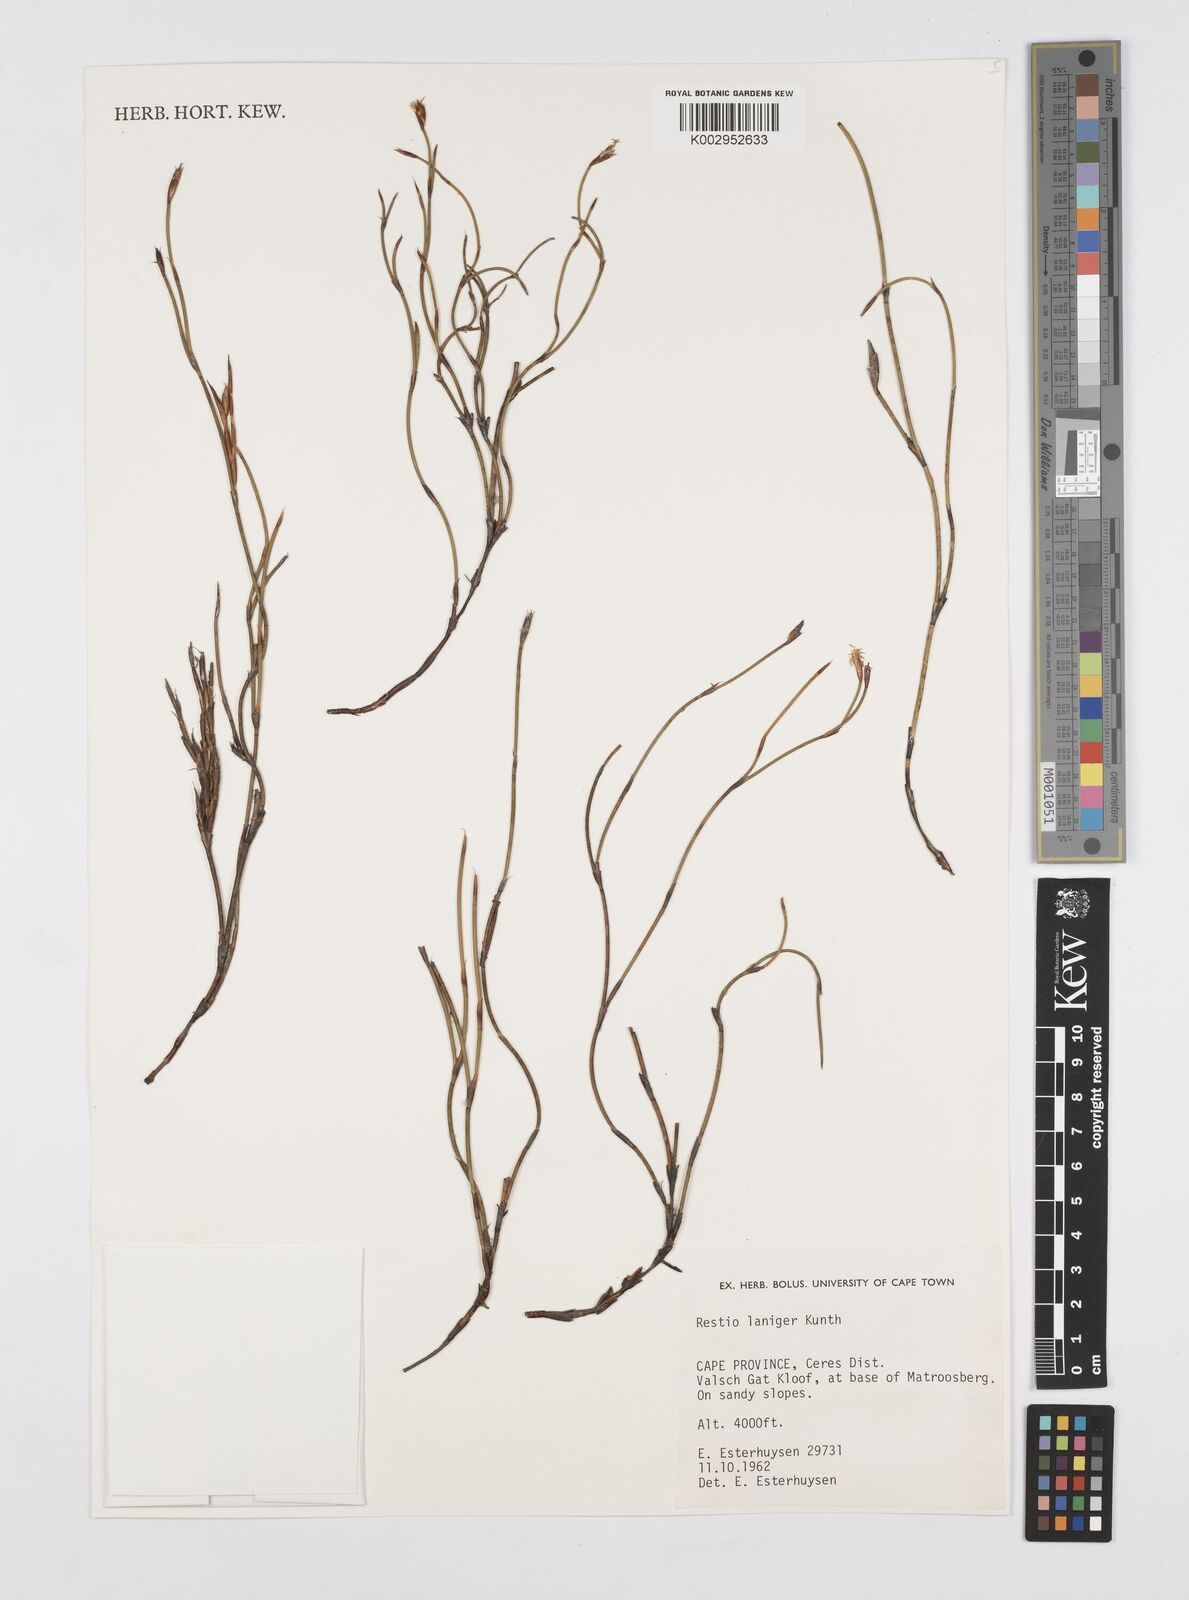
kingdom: Plantae
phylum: Tracheophyta
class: Liliopsida
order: Poales
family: Restionaceae
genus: Restio
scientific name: Restio laniger
